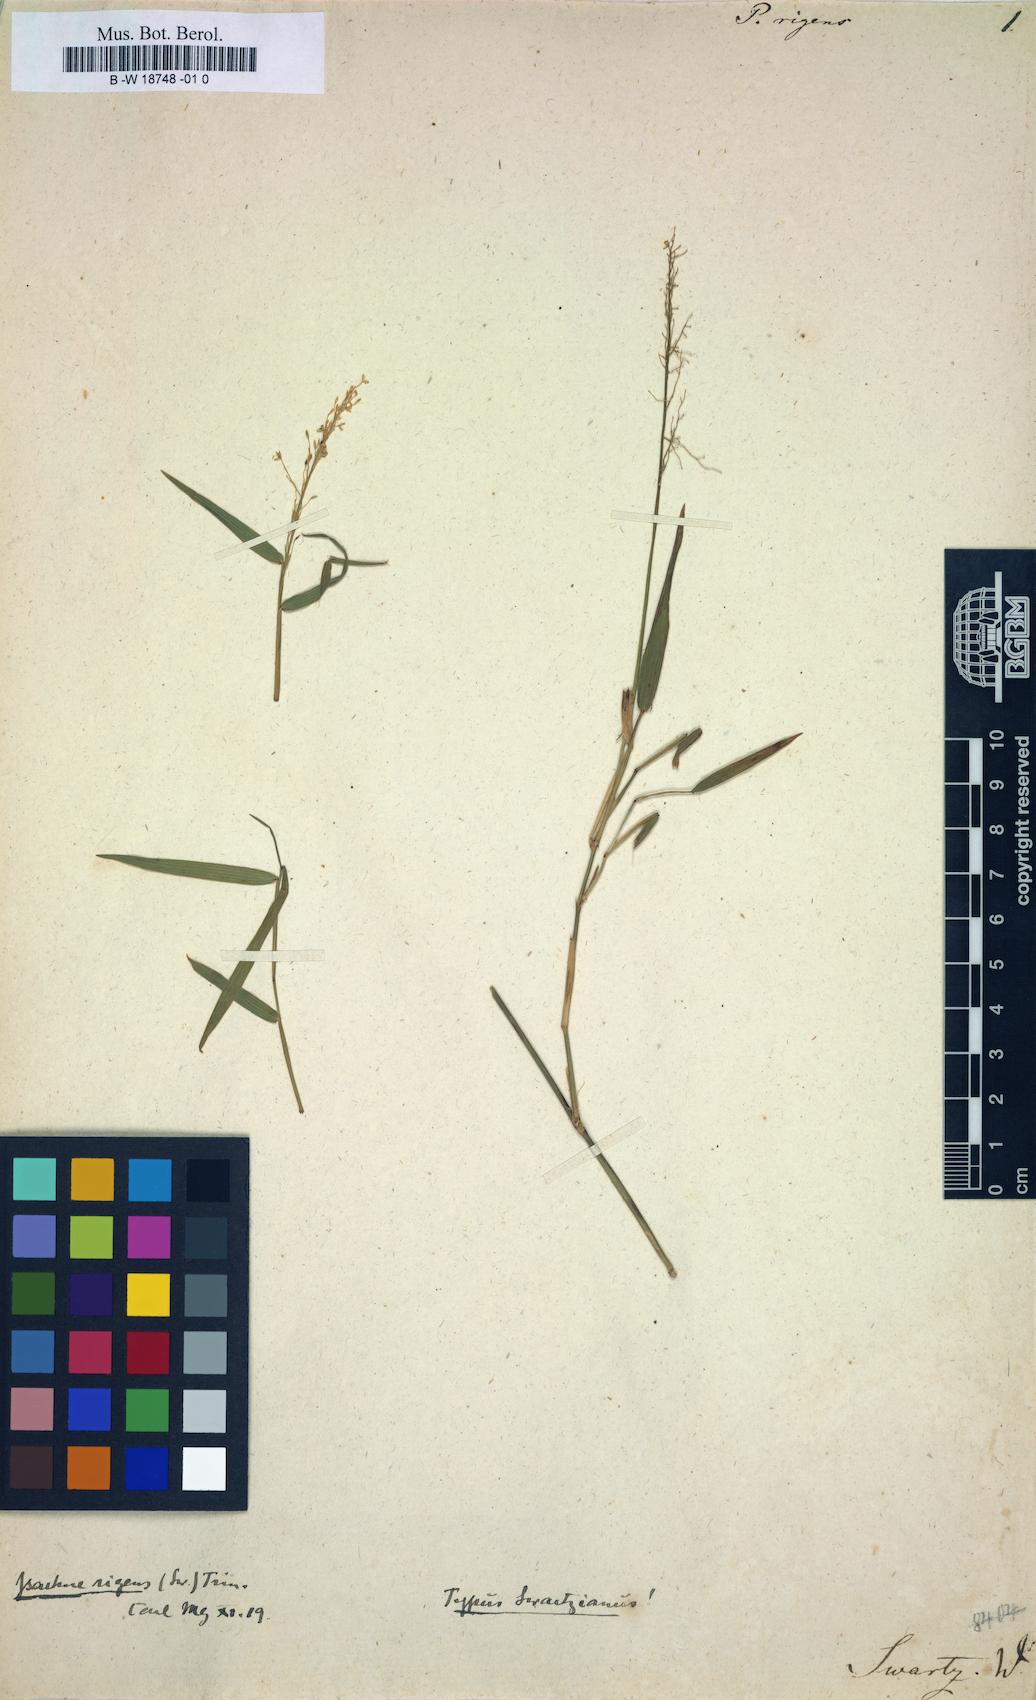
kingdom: Plantae
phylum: Tracheophyta
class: Liliopsida
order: Poales
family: Poaceae
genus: Isachne
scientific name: Isachne rigens
